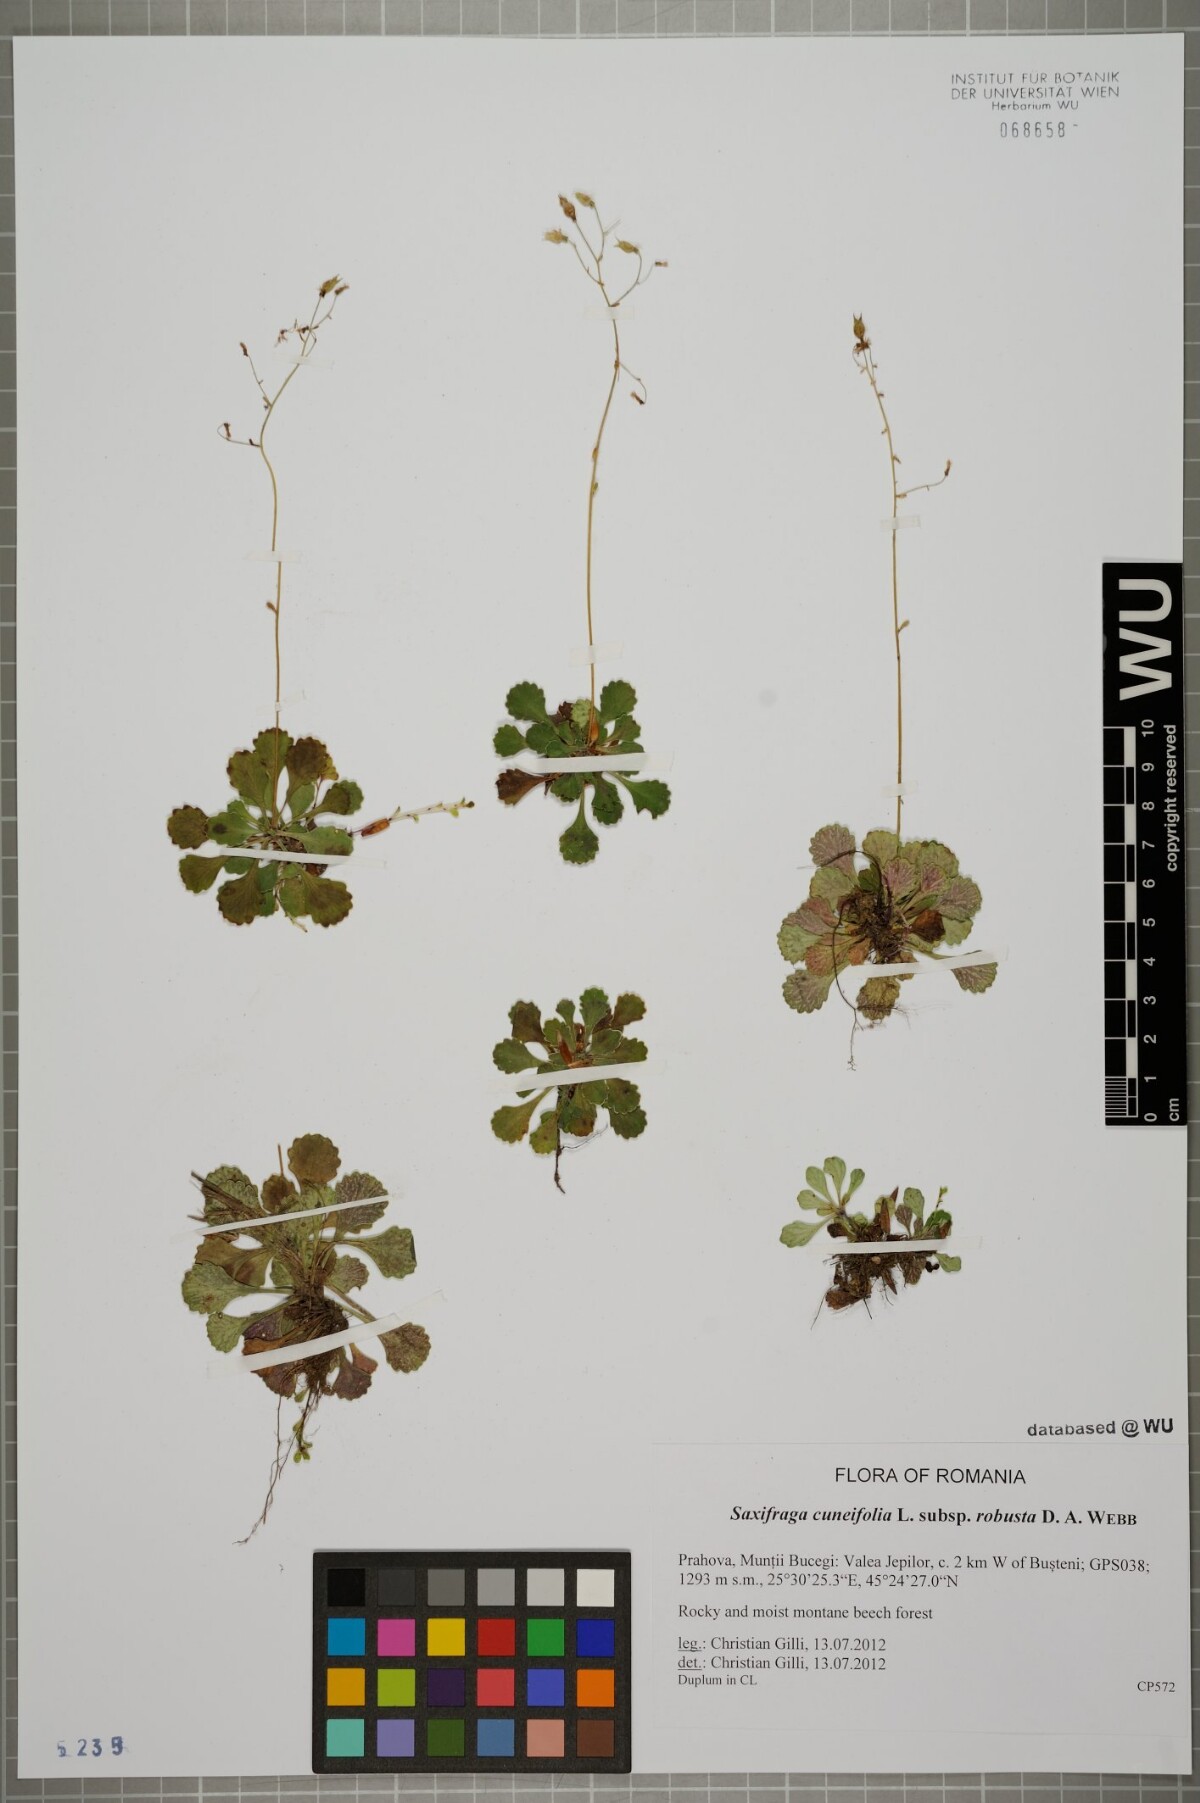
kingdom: Plantae
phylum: Tracheophyta
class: Magnoliopsida
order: Saxifragales
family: Saxifragaceae
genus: Saxifraga
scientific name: Saxifraga cuneifolia
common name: Lesser londonpride
